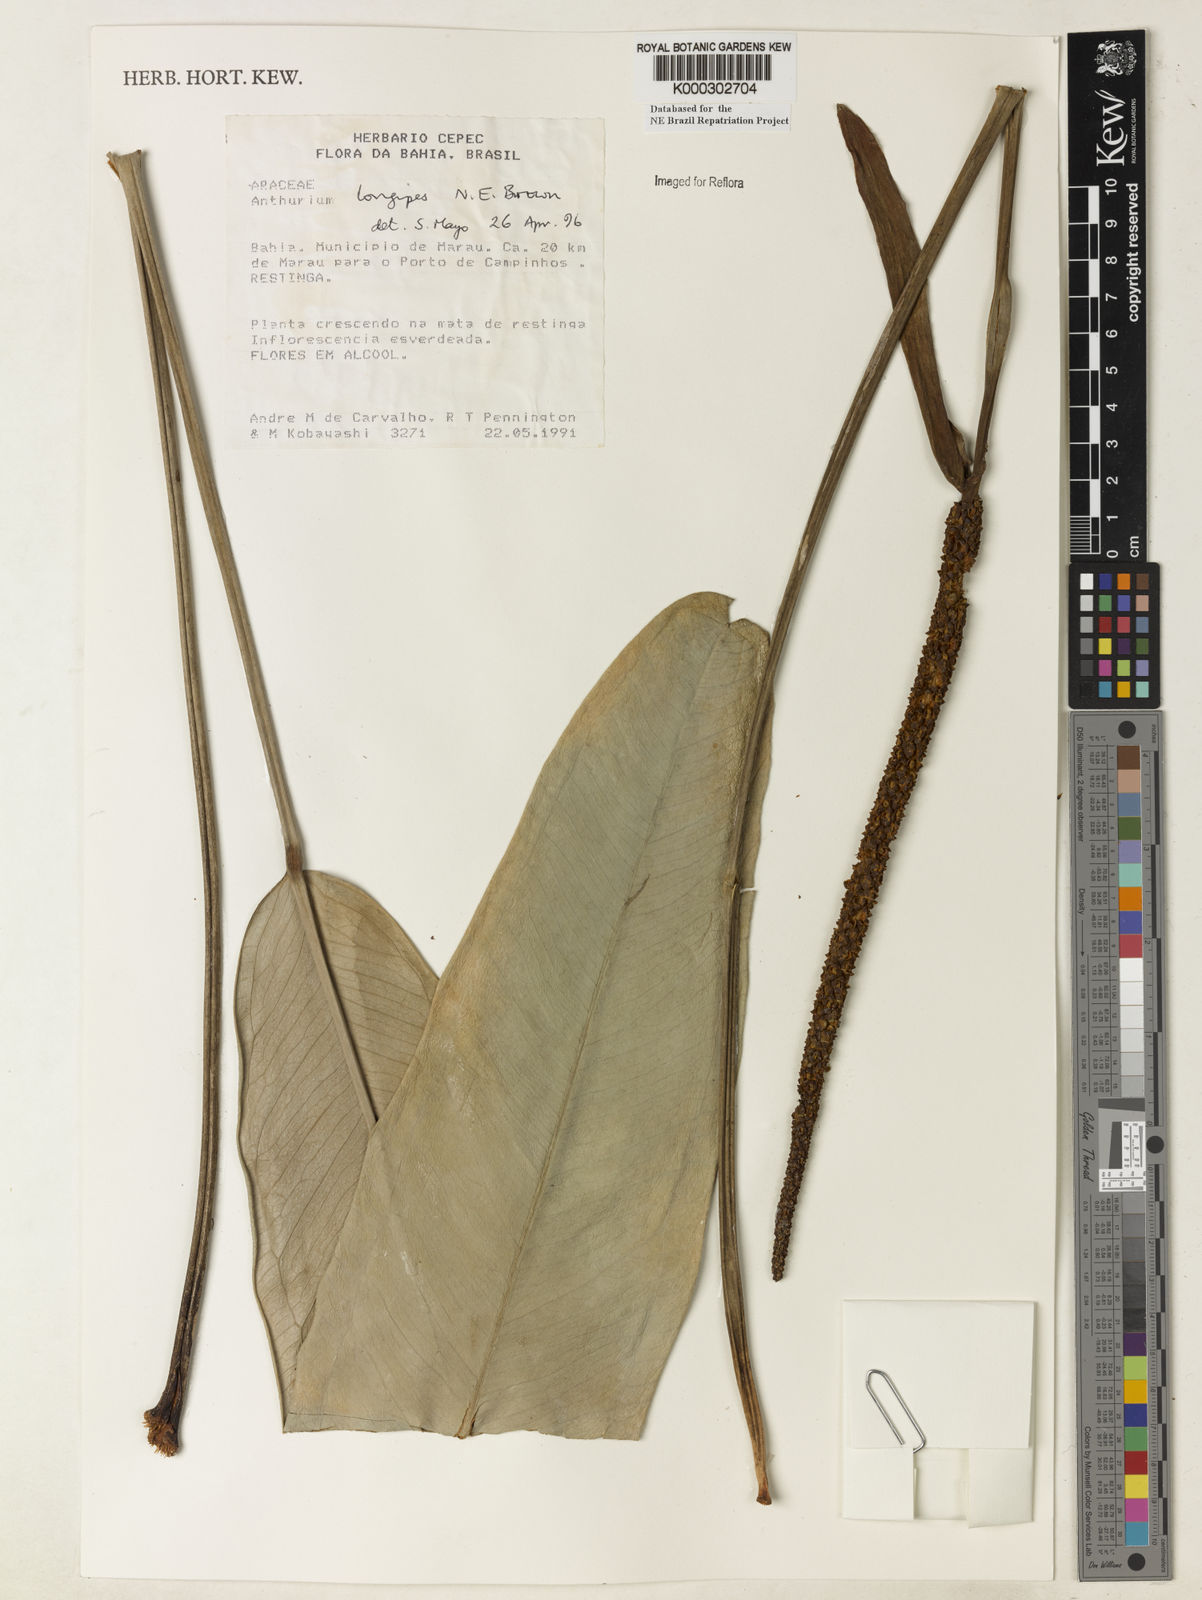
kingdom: Plantae
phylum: Tracheophyta
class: Liliopsida
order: Alismatales
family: Araceae
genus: Anthurium
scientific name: Anthurium longipes
